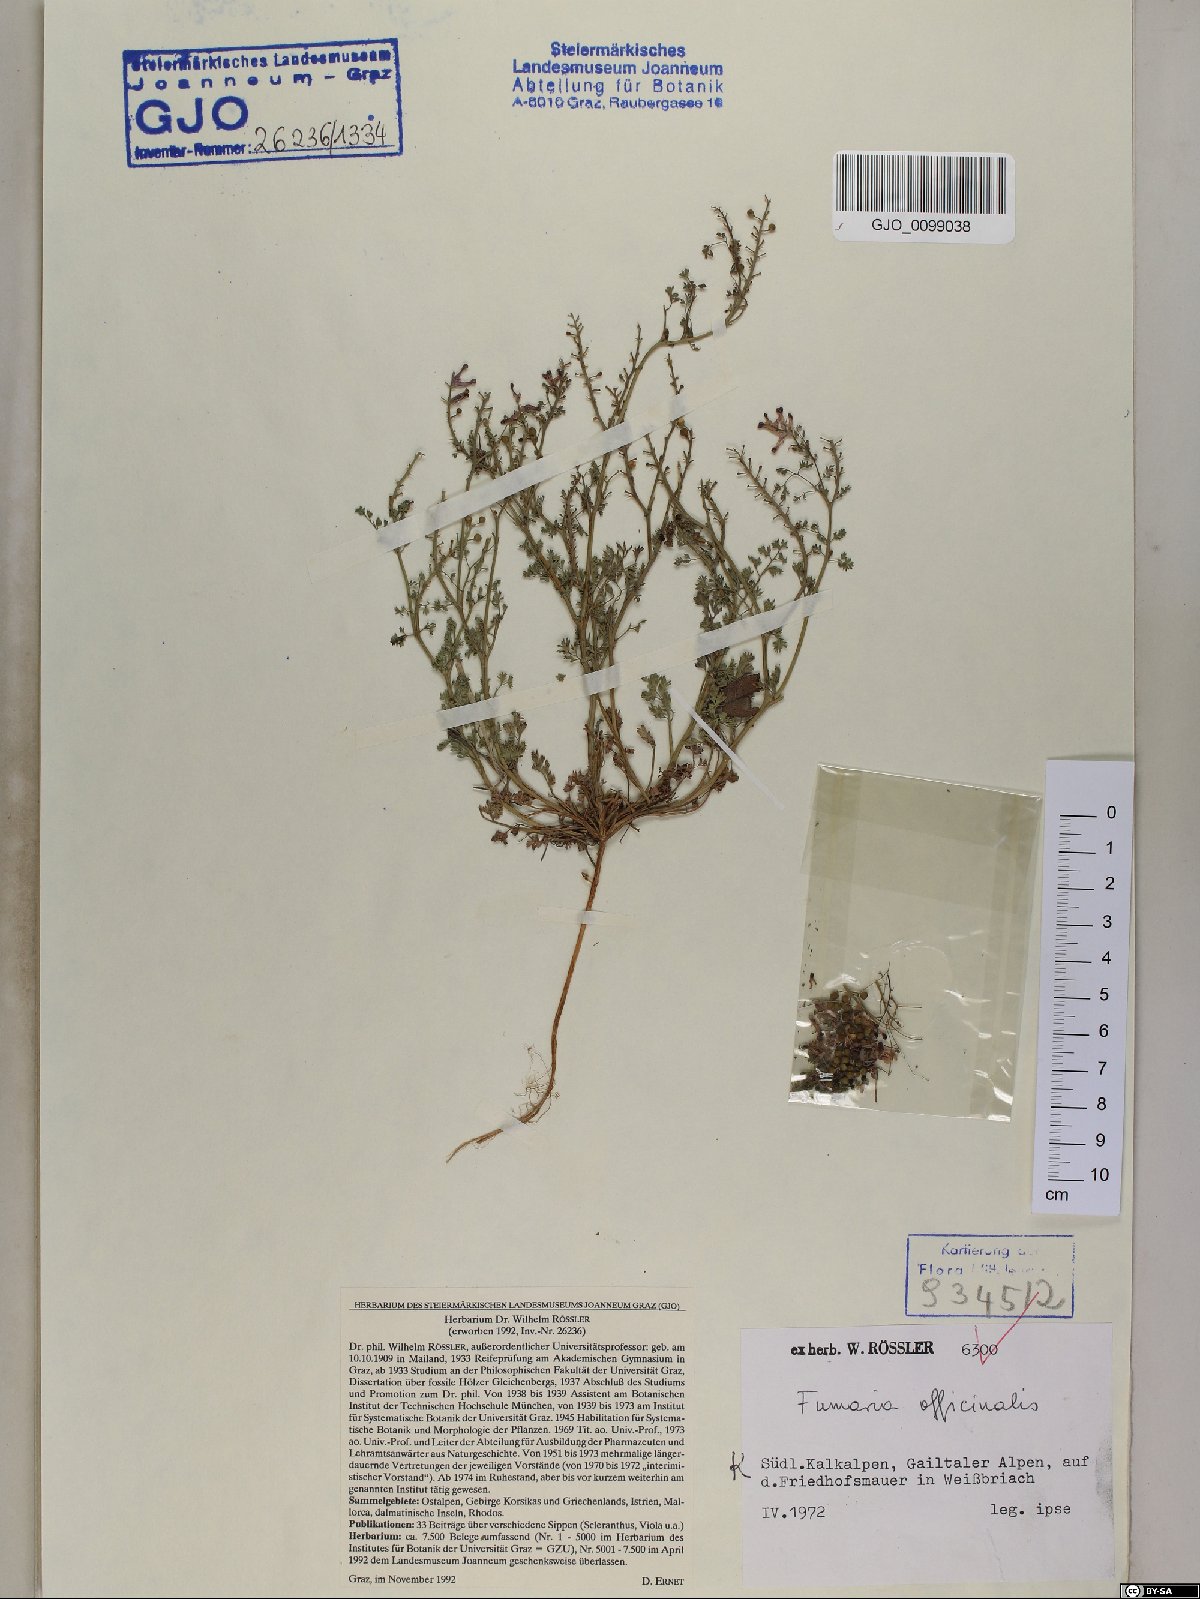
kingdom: Plantae
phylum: Tracheophyta
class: Magnoliopsida
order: Ranunculales
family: Papaveraceae
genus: Fumaria
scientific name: Fumaria officinalis
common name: Common fumitory
